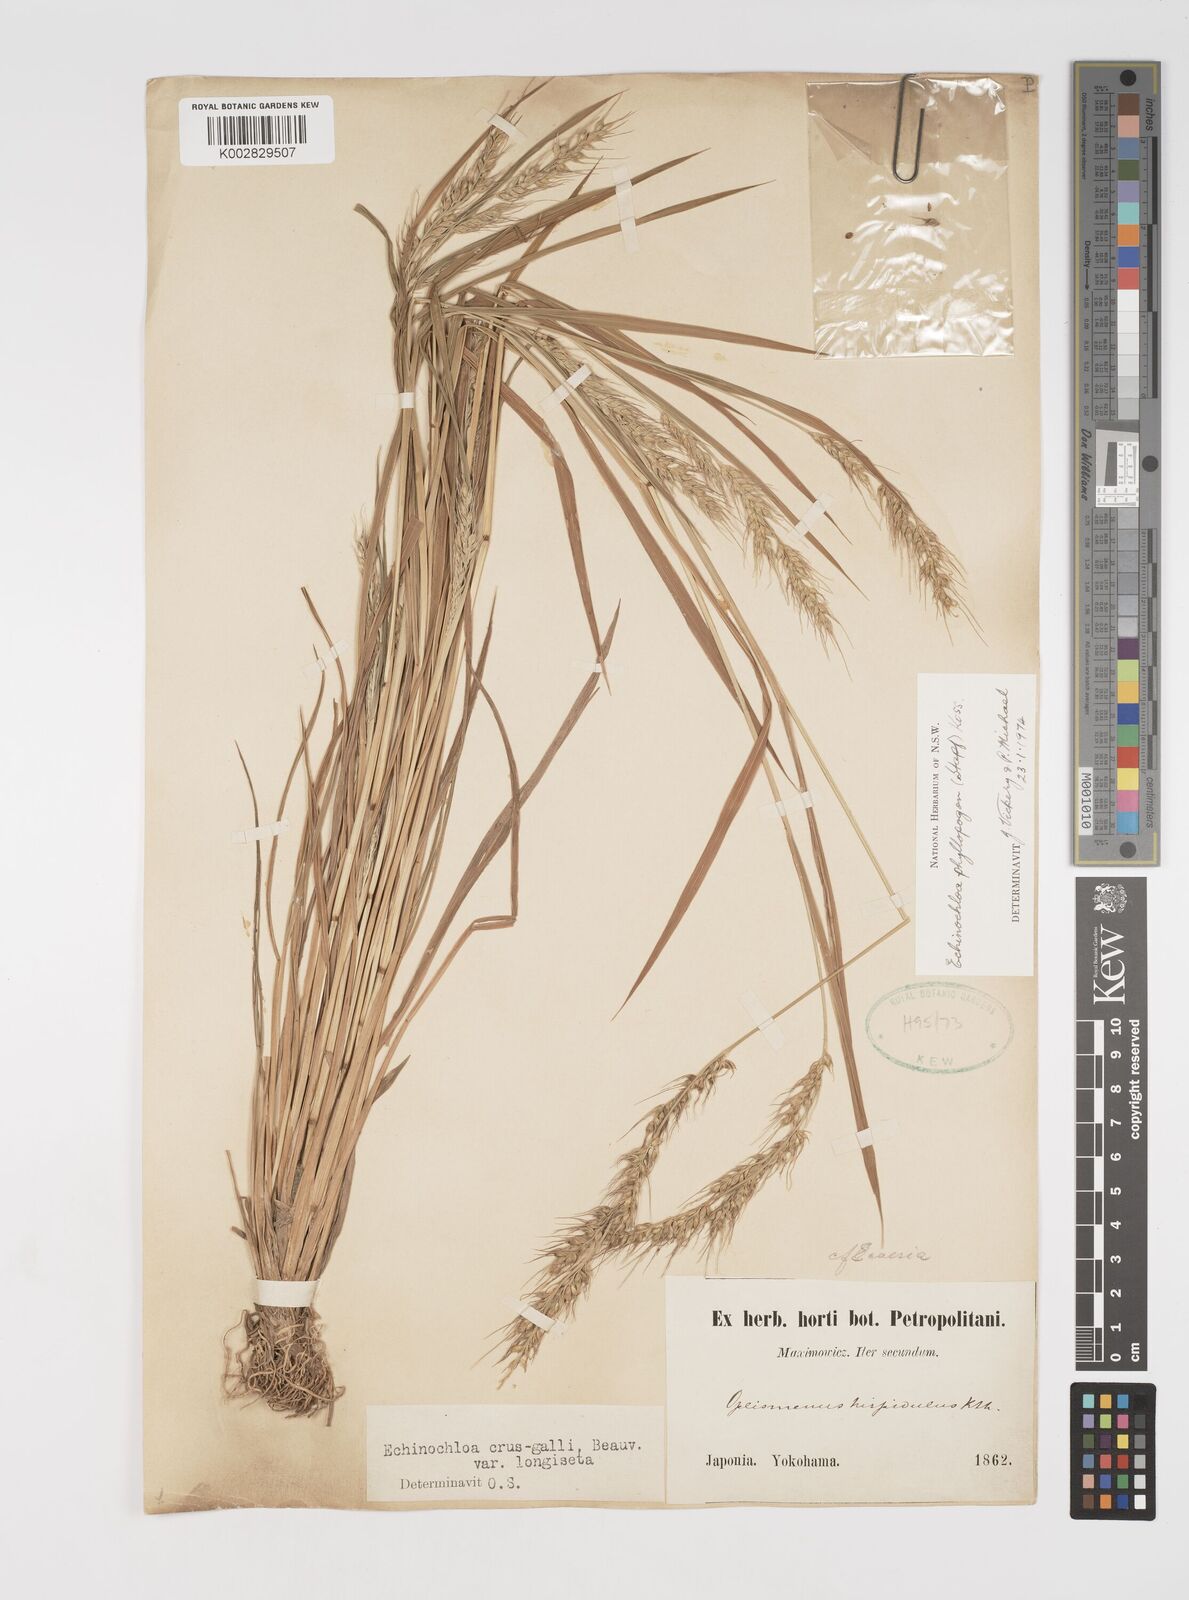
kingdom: Plantae
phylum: Tracheophyta
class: Liliopsida
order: Poales
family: Poaceae
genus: Echinochloa
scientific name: Echinochloa oryzoides
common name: Early water grass
